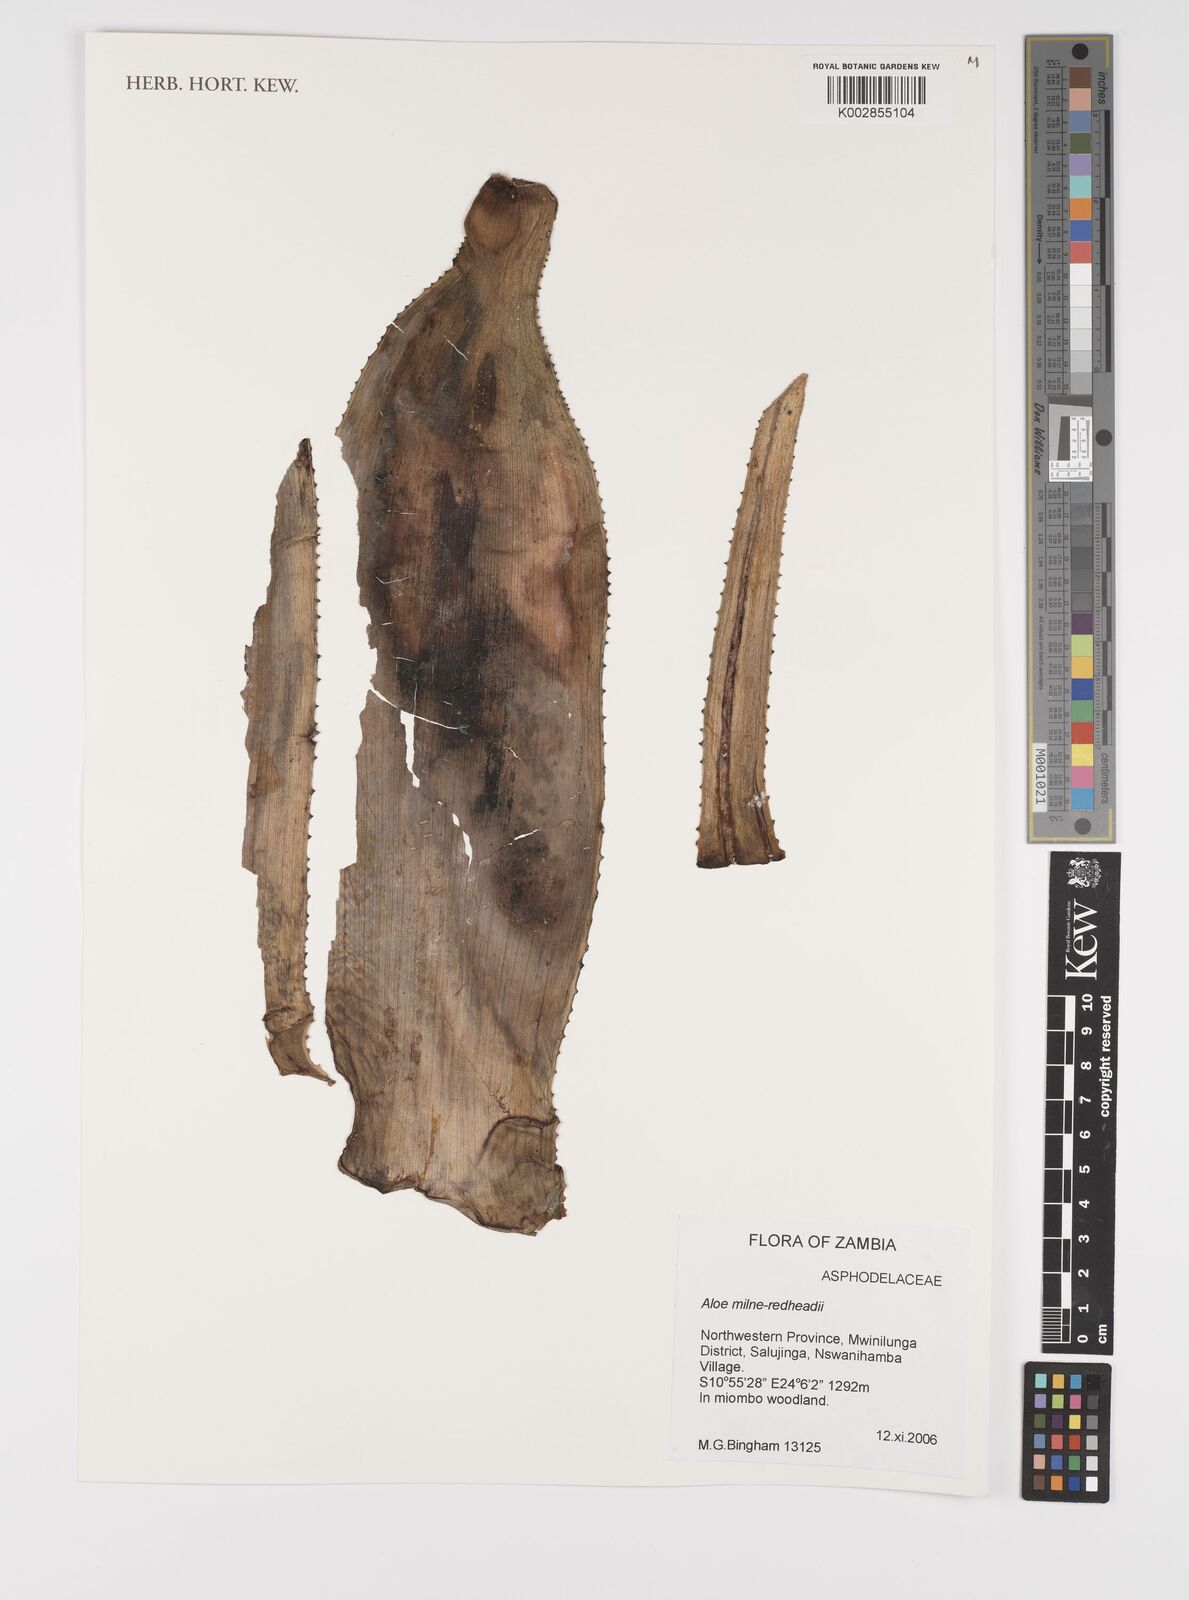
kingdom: Plantae
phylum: Tracheophyta
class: Liliopsida
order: Asparagales
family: Asphodelaceae
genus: Aloe
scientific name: Aloe milne-redheadii
